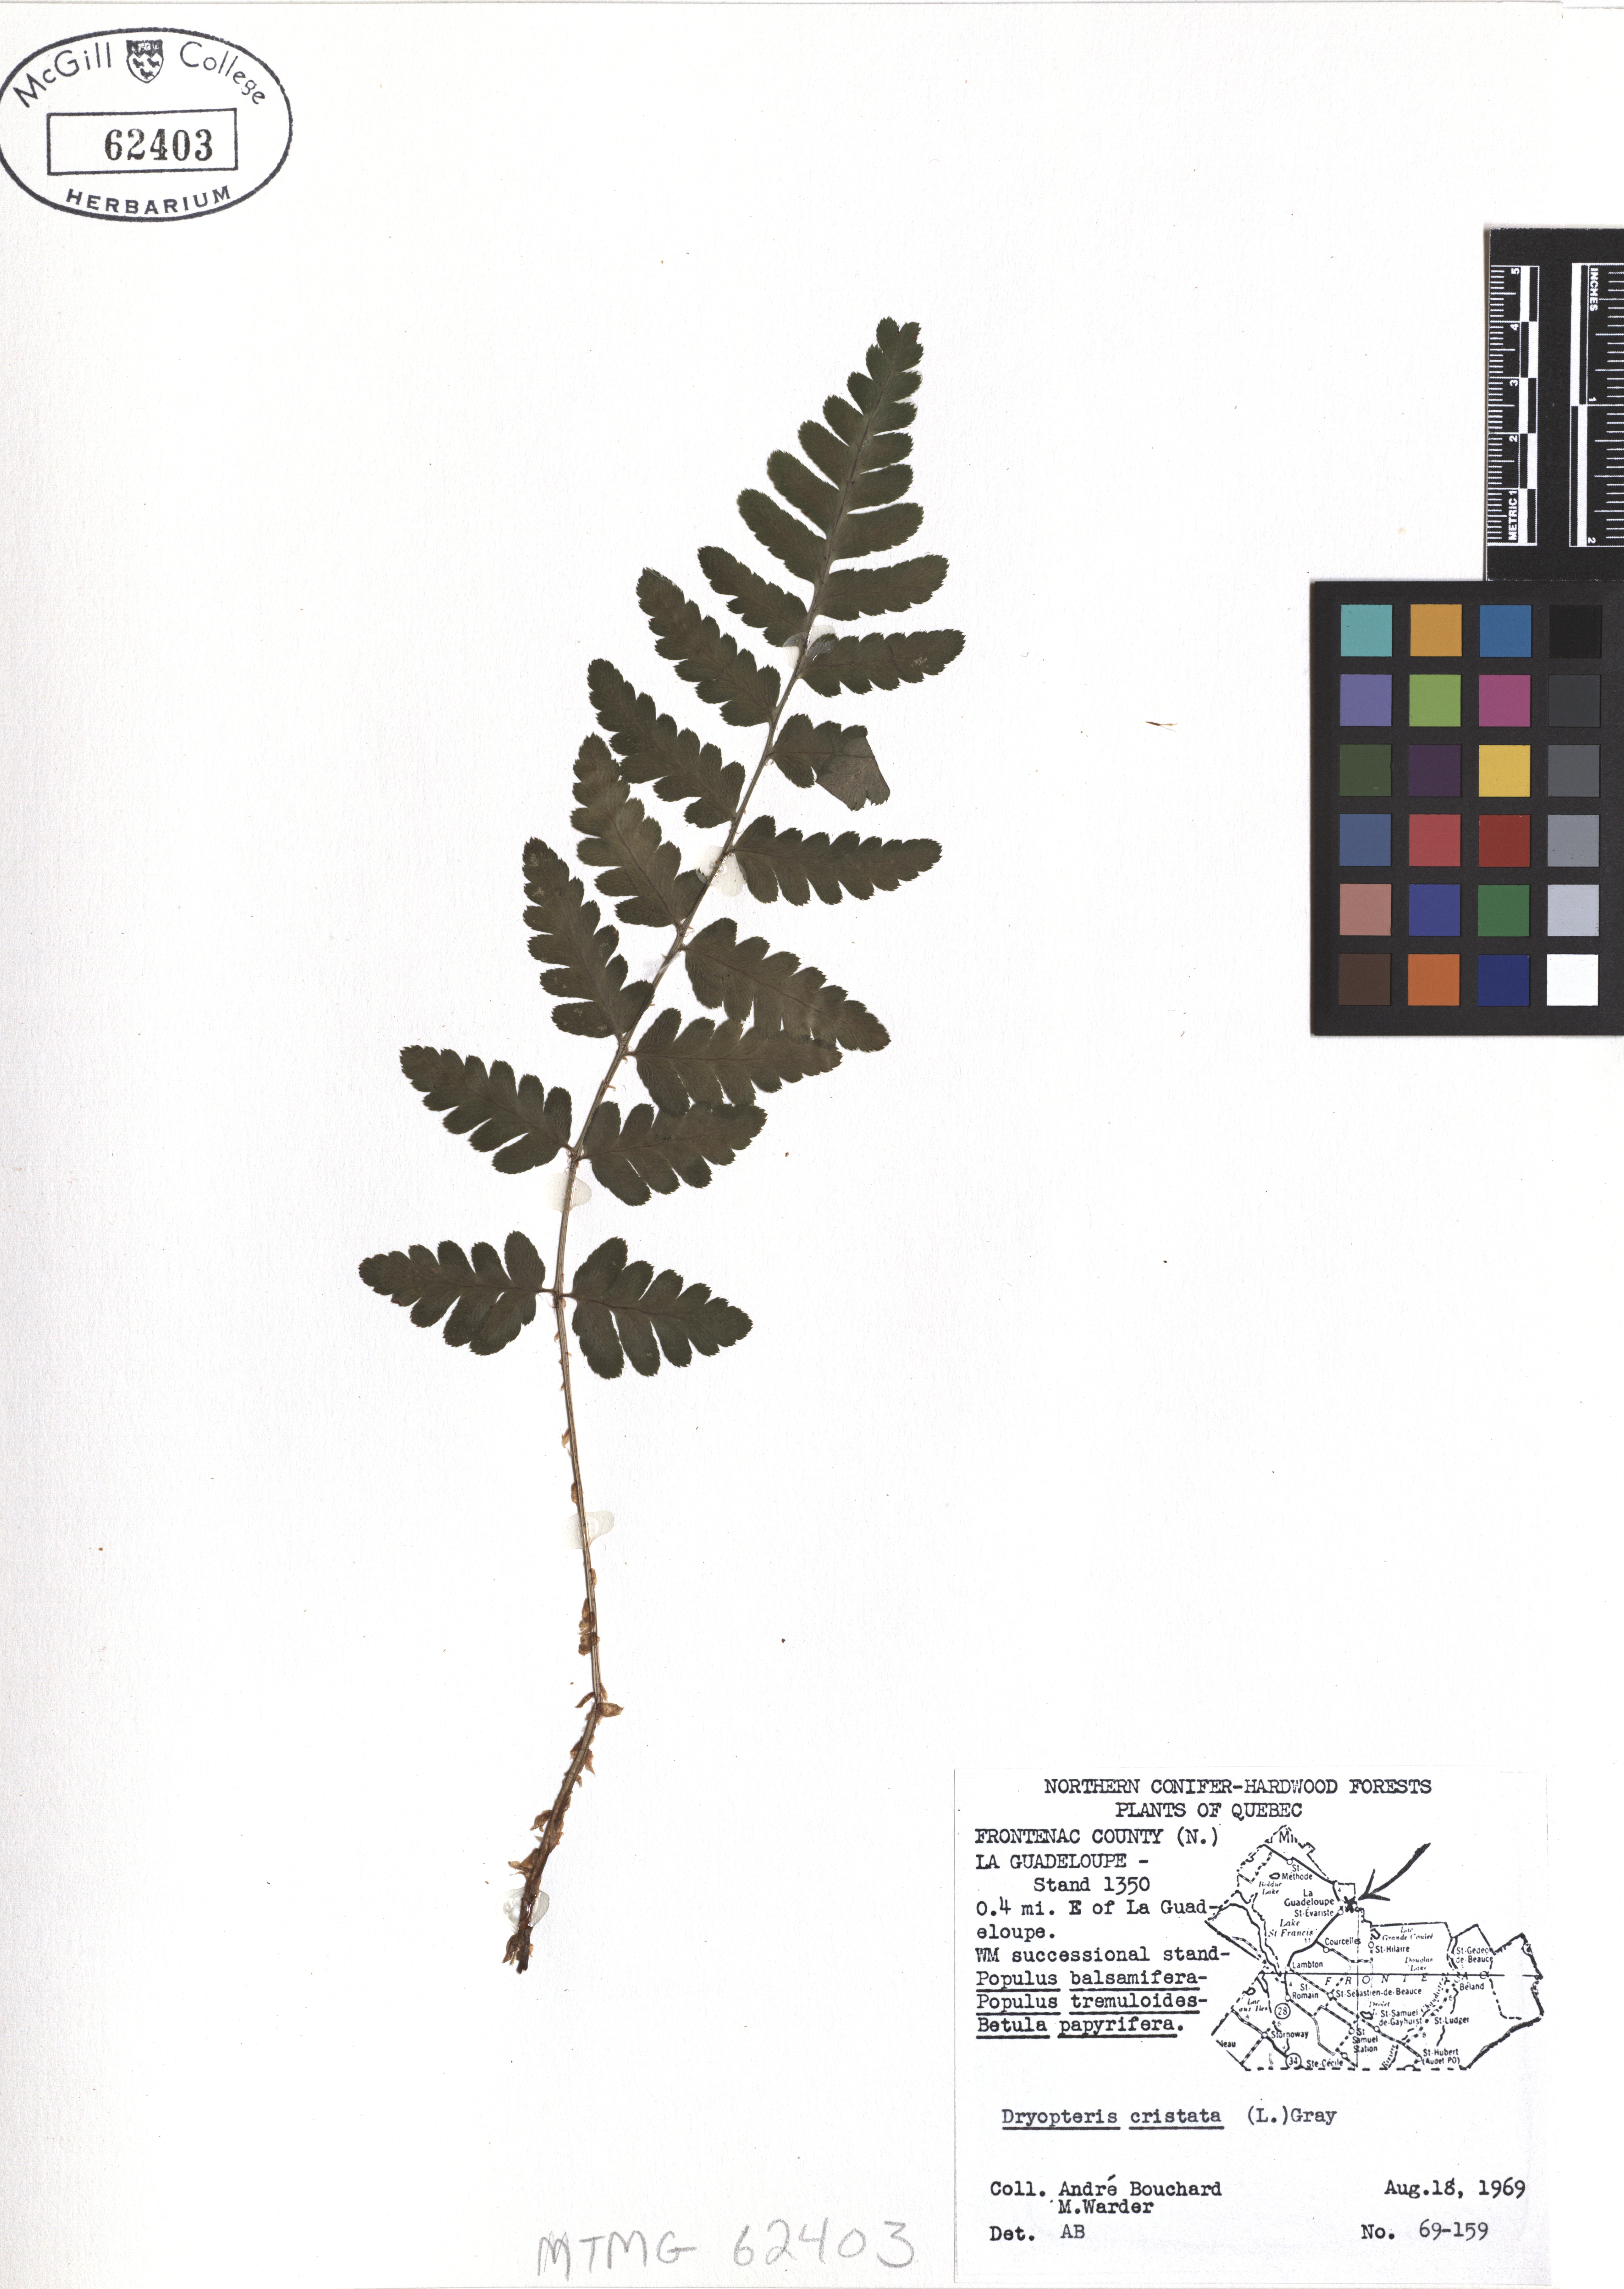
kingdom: Plantae
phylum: Tracheophyta
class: Polypodiopsida
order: Polypodiales
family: Dryopteridaceae
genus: Dryopteris
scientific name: Dryopteris cristata
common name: Crested wood fern
